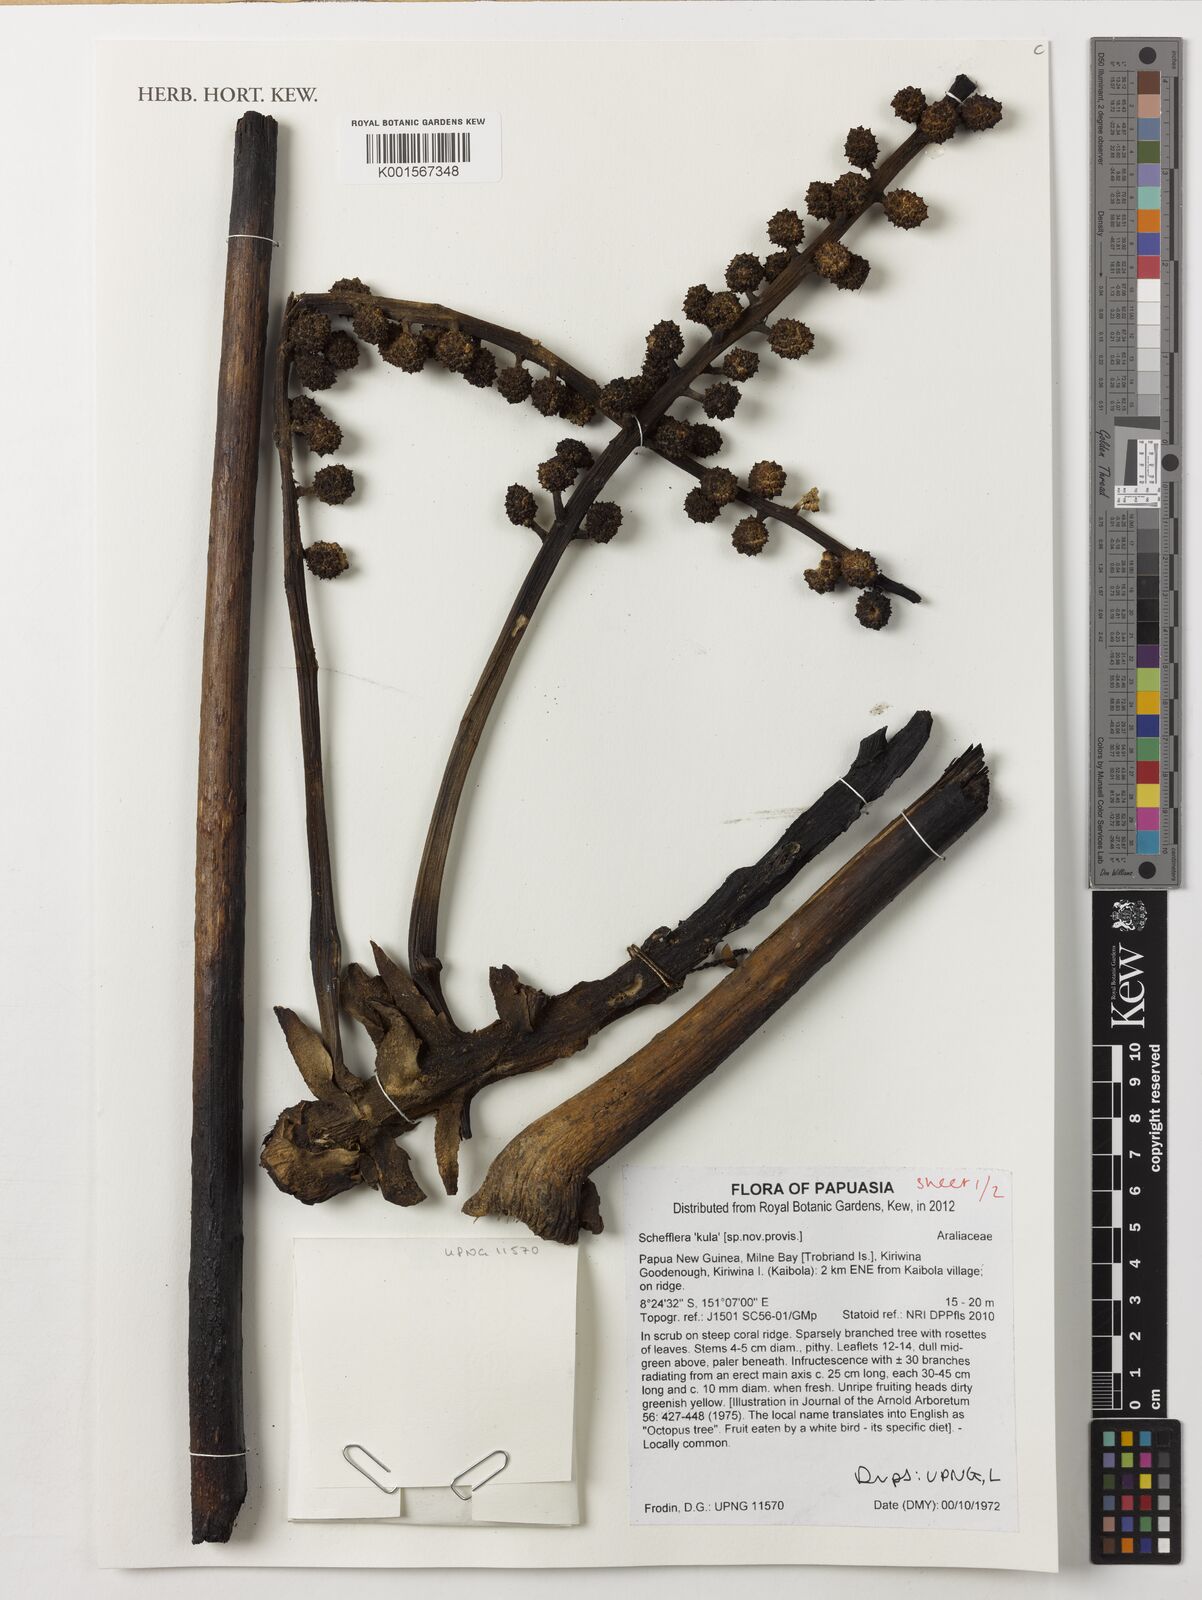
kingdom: Plantae
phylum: Tracheophyta
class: Magnoliopsida
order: Apiales
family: Araliaceae
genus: Schefflera
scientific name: Schefflera
